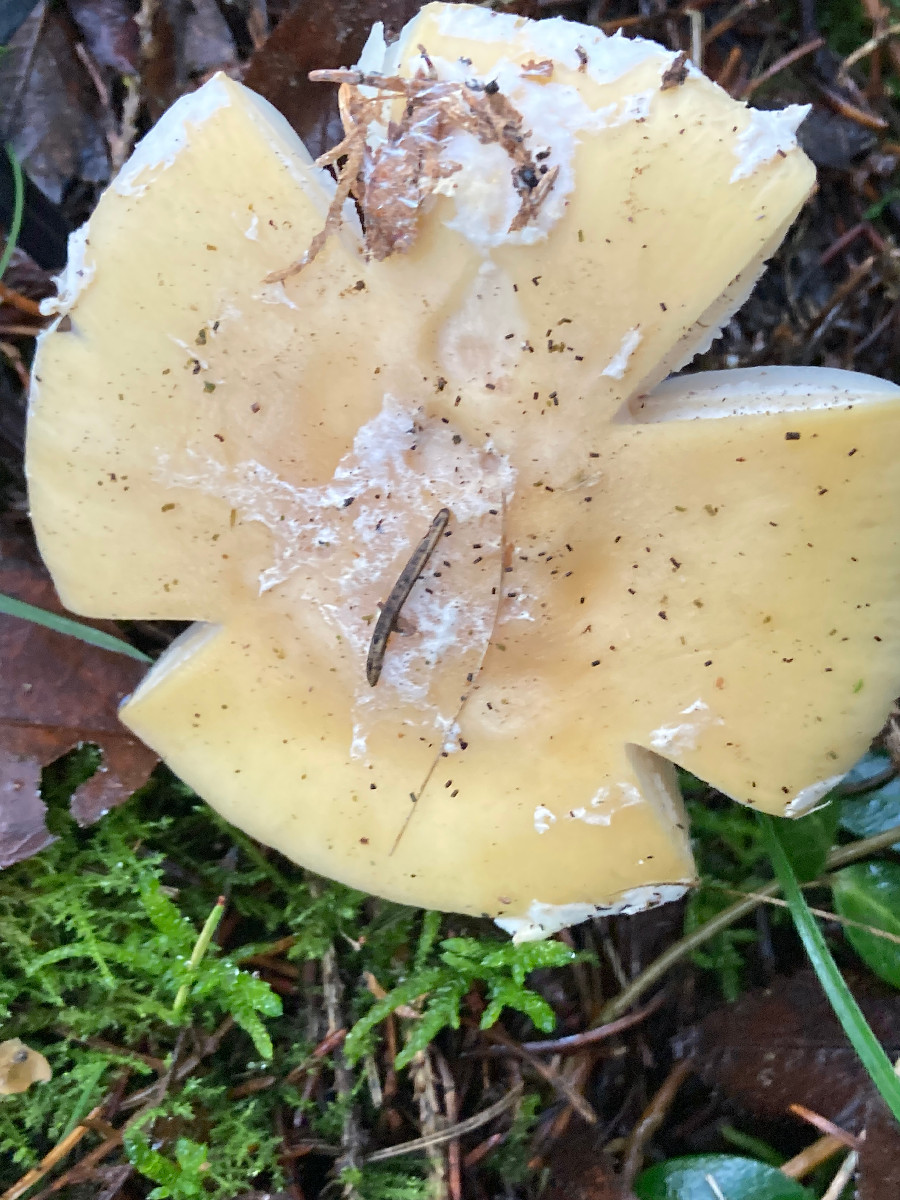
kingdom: Fungi
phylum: Basidiomycota
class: Agaricomycetes
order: Agaricales
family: Amanitaceae
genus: Amanita
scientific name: Amanita gemmata
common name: okkergul fluesvamp
